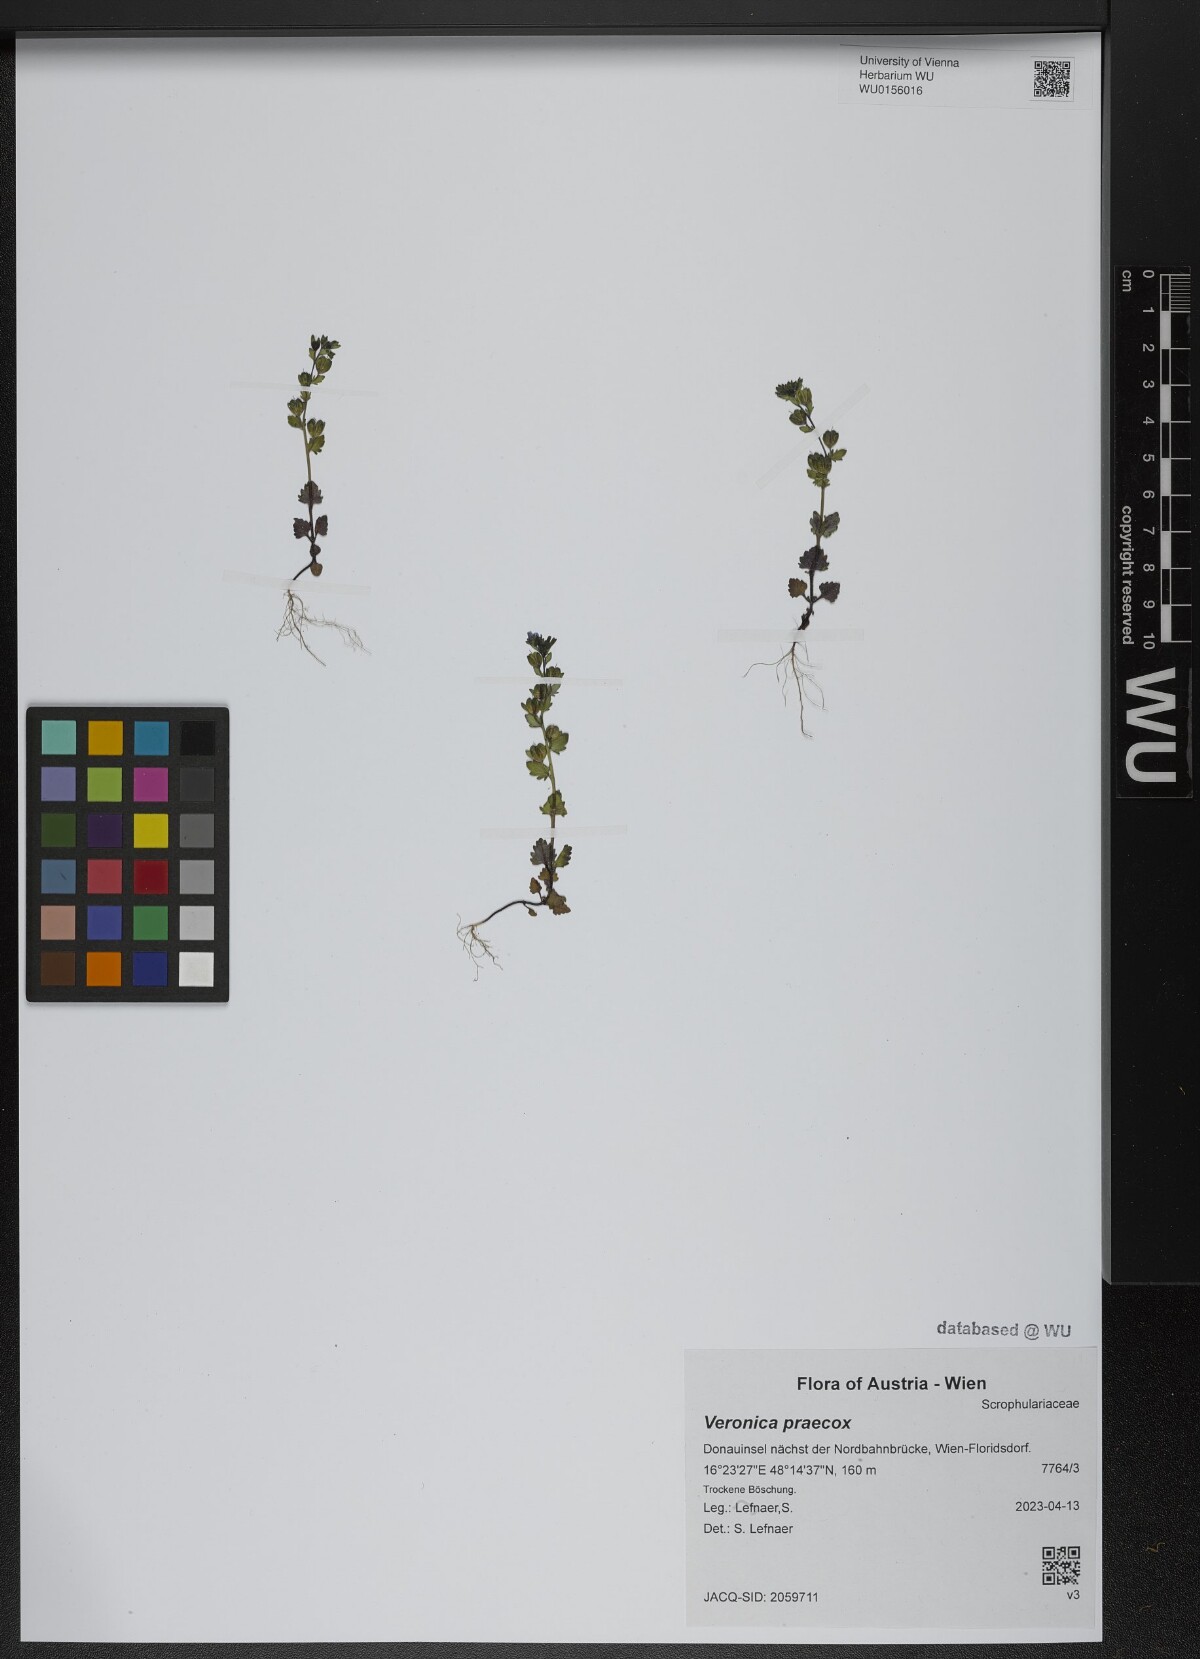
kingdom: Plantae
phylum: Tracheophyta
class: Magnoliopsida
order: Lamiales
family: Plantaginaceae
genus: Veronica
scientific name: Veronica praecox
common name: Breckland speedwell
